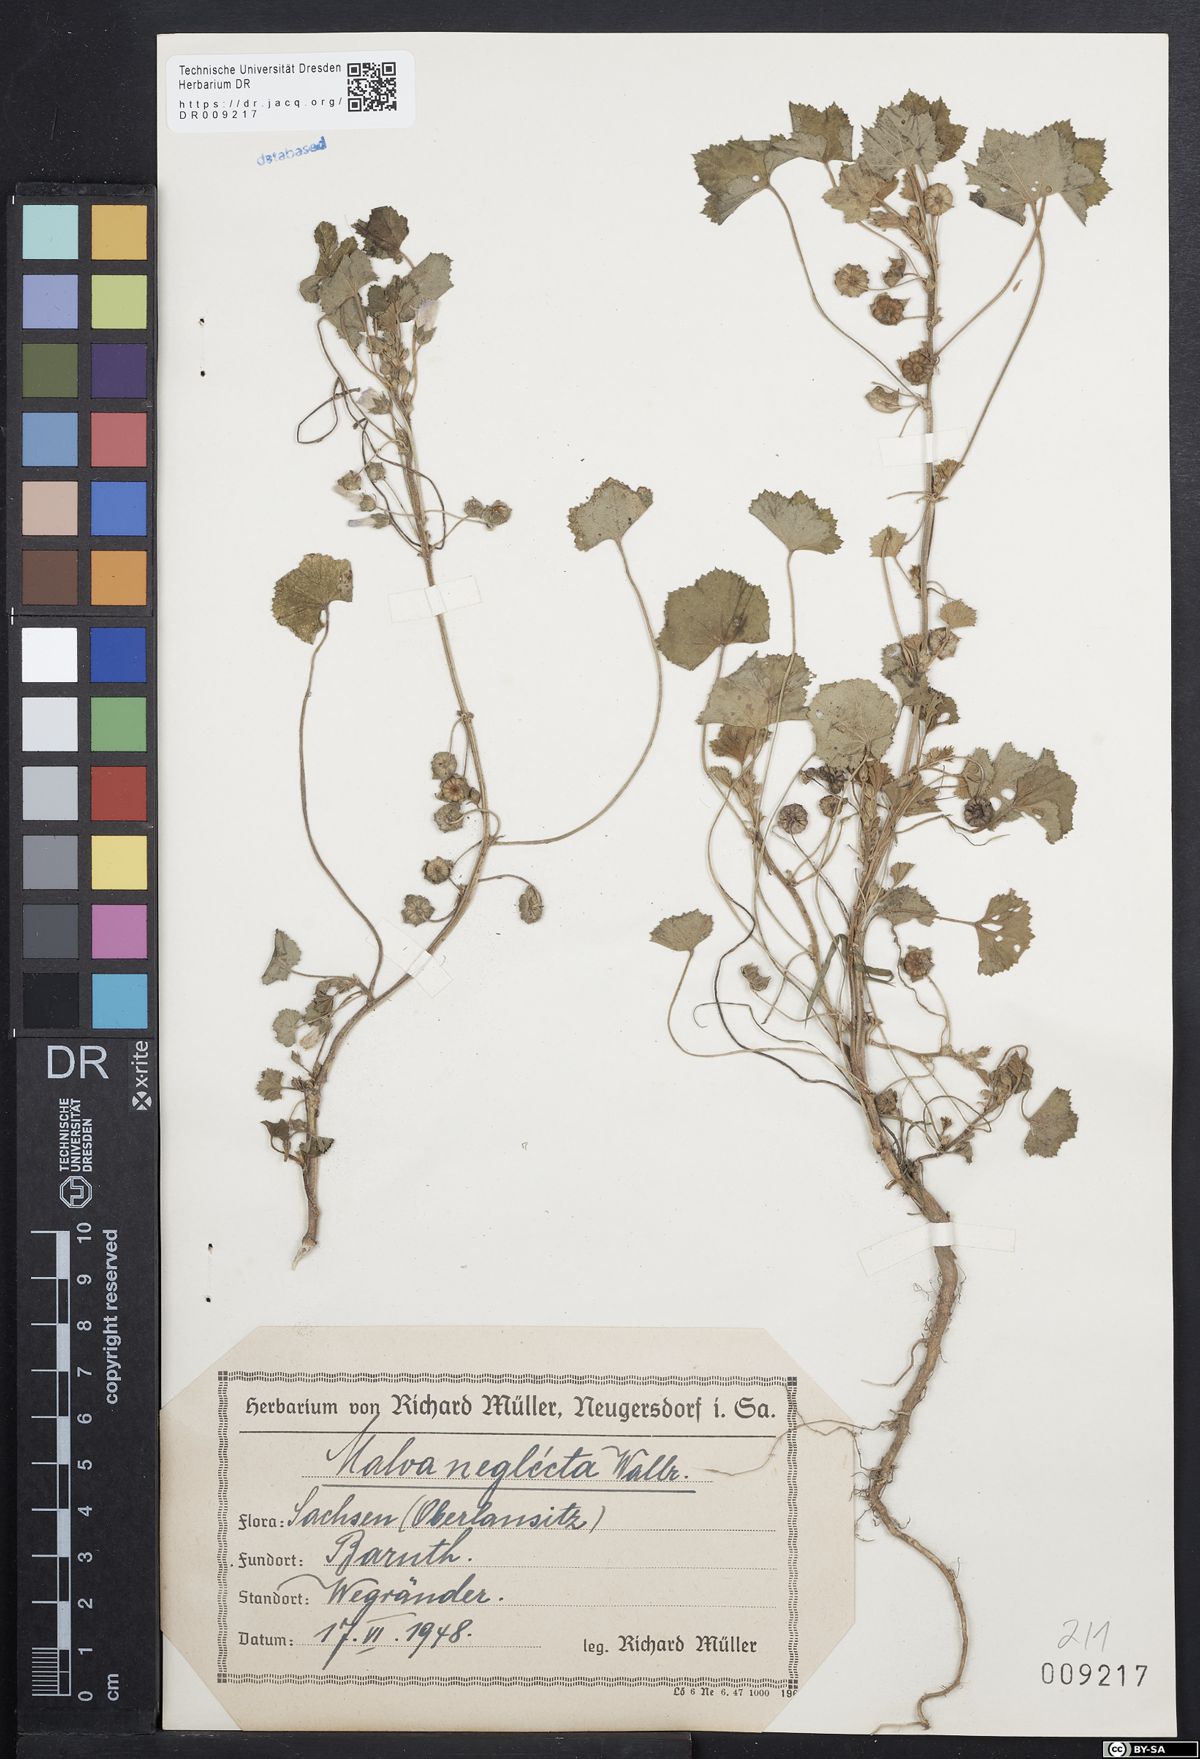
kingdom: Plantae
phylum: Tracheophyta
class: Magnoliopsida
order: Malvales
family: Malvaceae
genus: Malva
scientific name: Malva neglecta
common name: Common mallow
